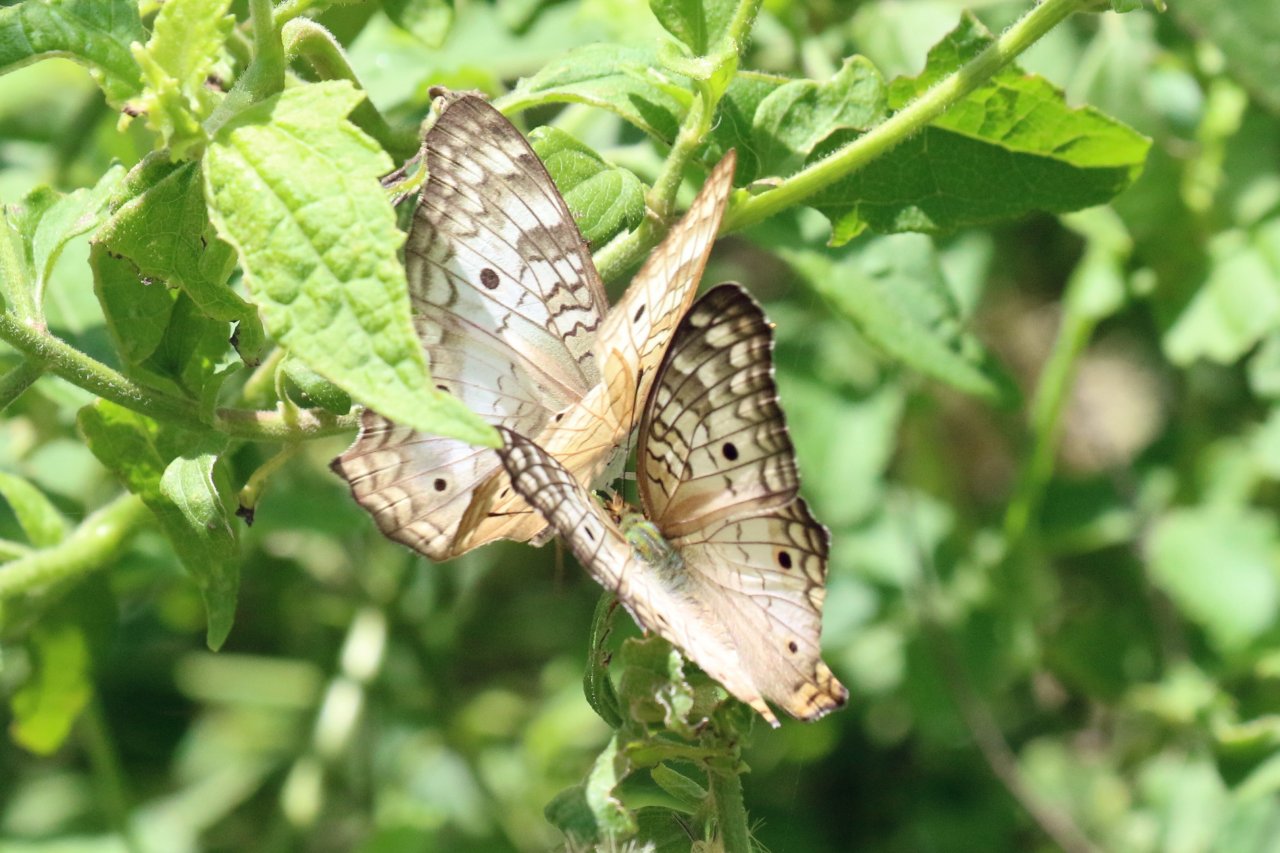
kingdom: Animalia
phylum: Arthropoda
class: Insecta
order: Lepidoptera
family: Nymphalidae
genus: Anartia
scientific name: Anartia jatrophae
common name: White Peacock
